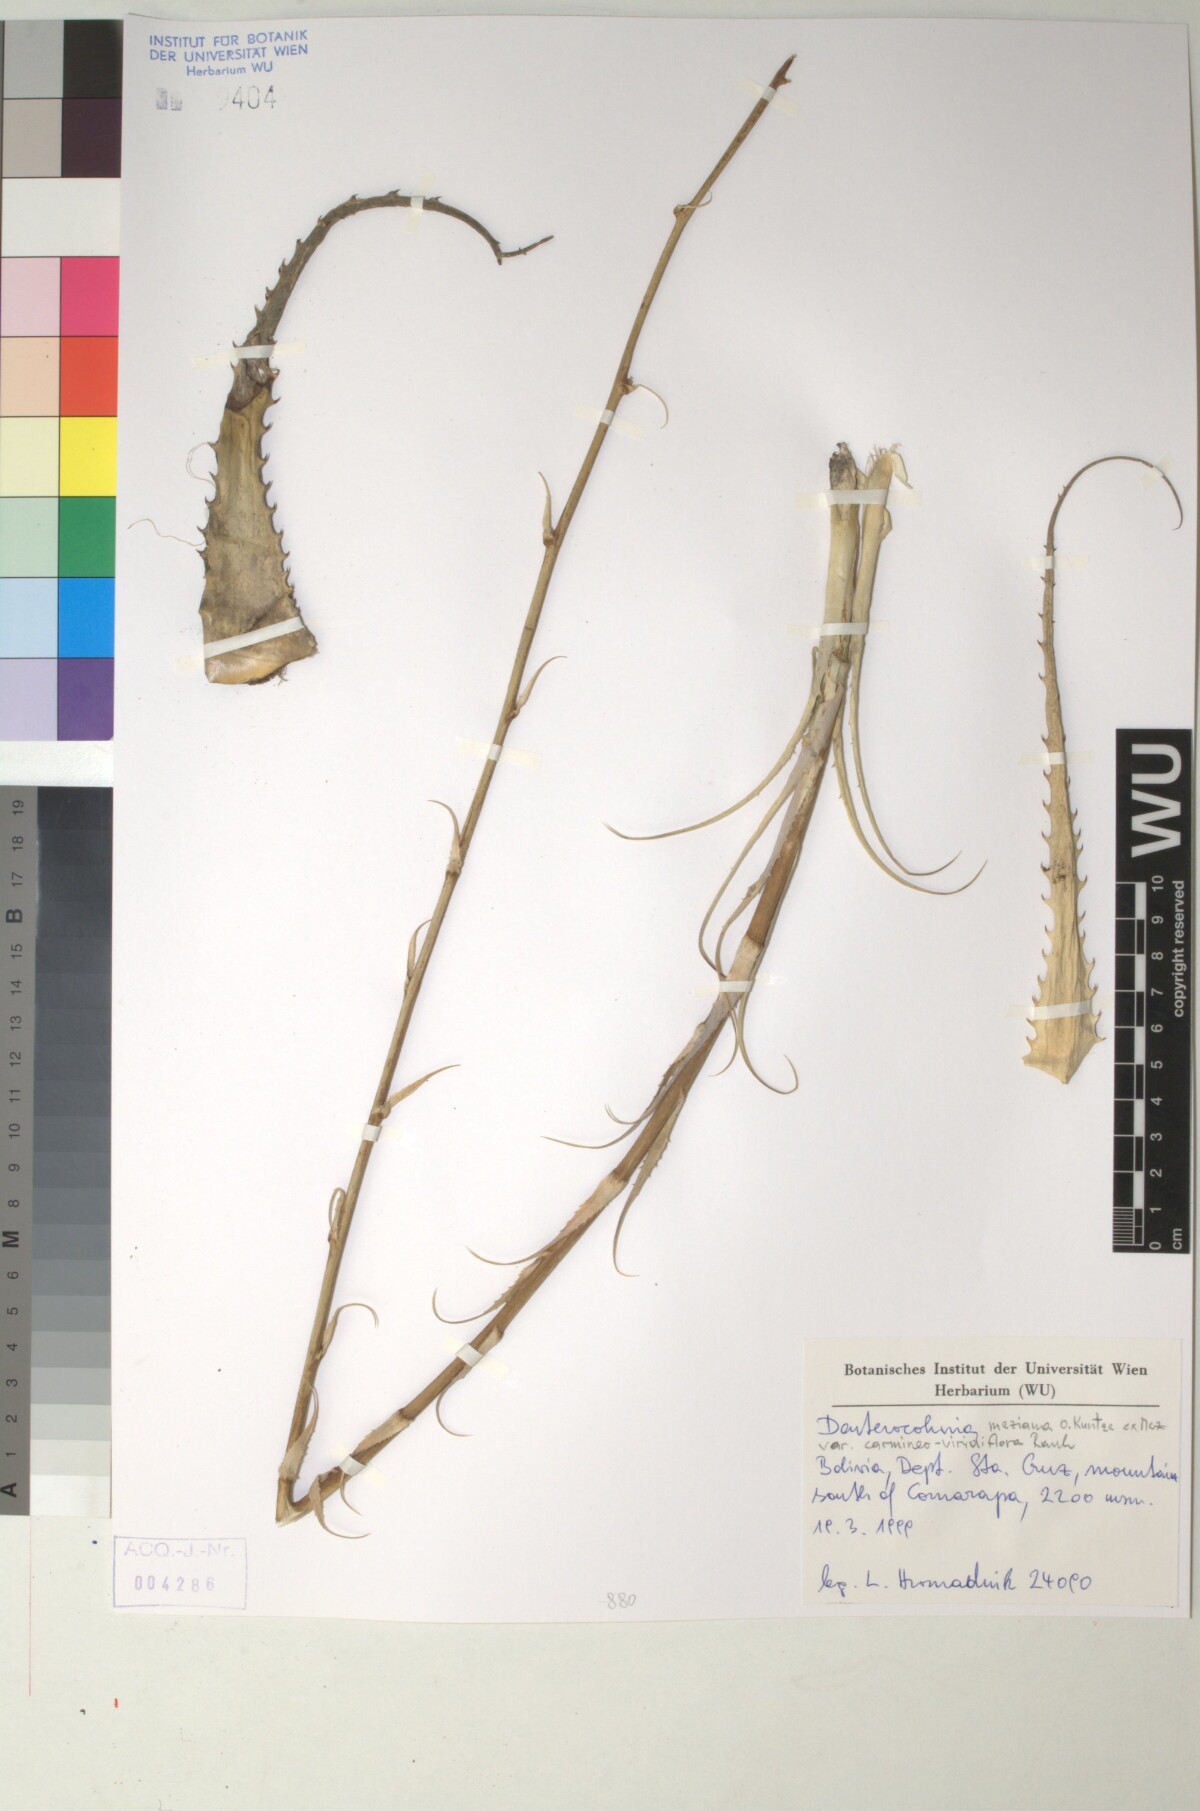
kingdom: Plantae
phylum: Tracheophyta
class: Liliopsida
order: Poales
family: Bromeliaceae
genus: Deuterocohnia
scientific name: Deuterocohnia meziana
